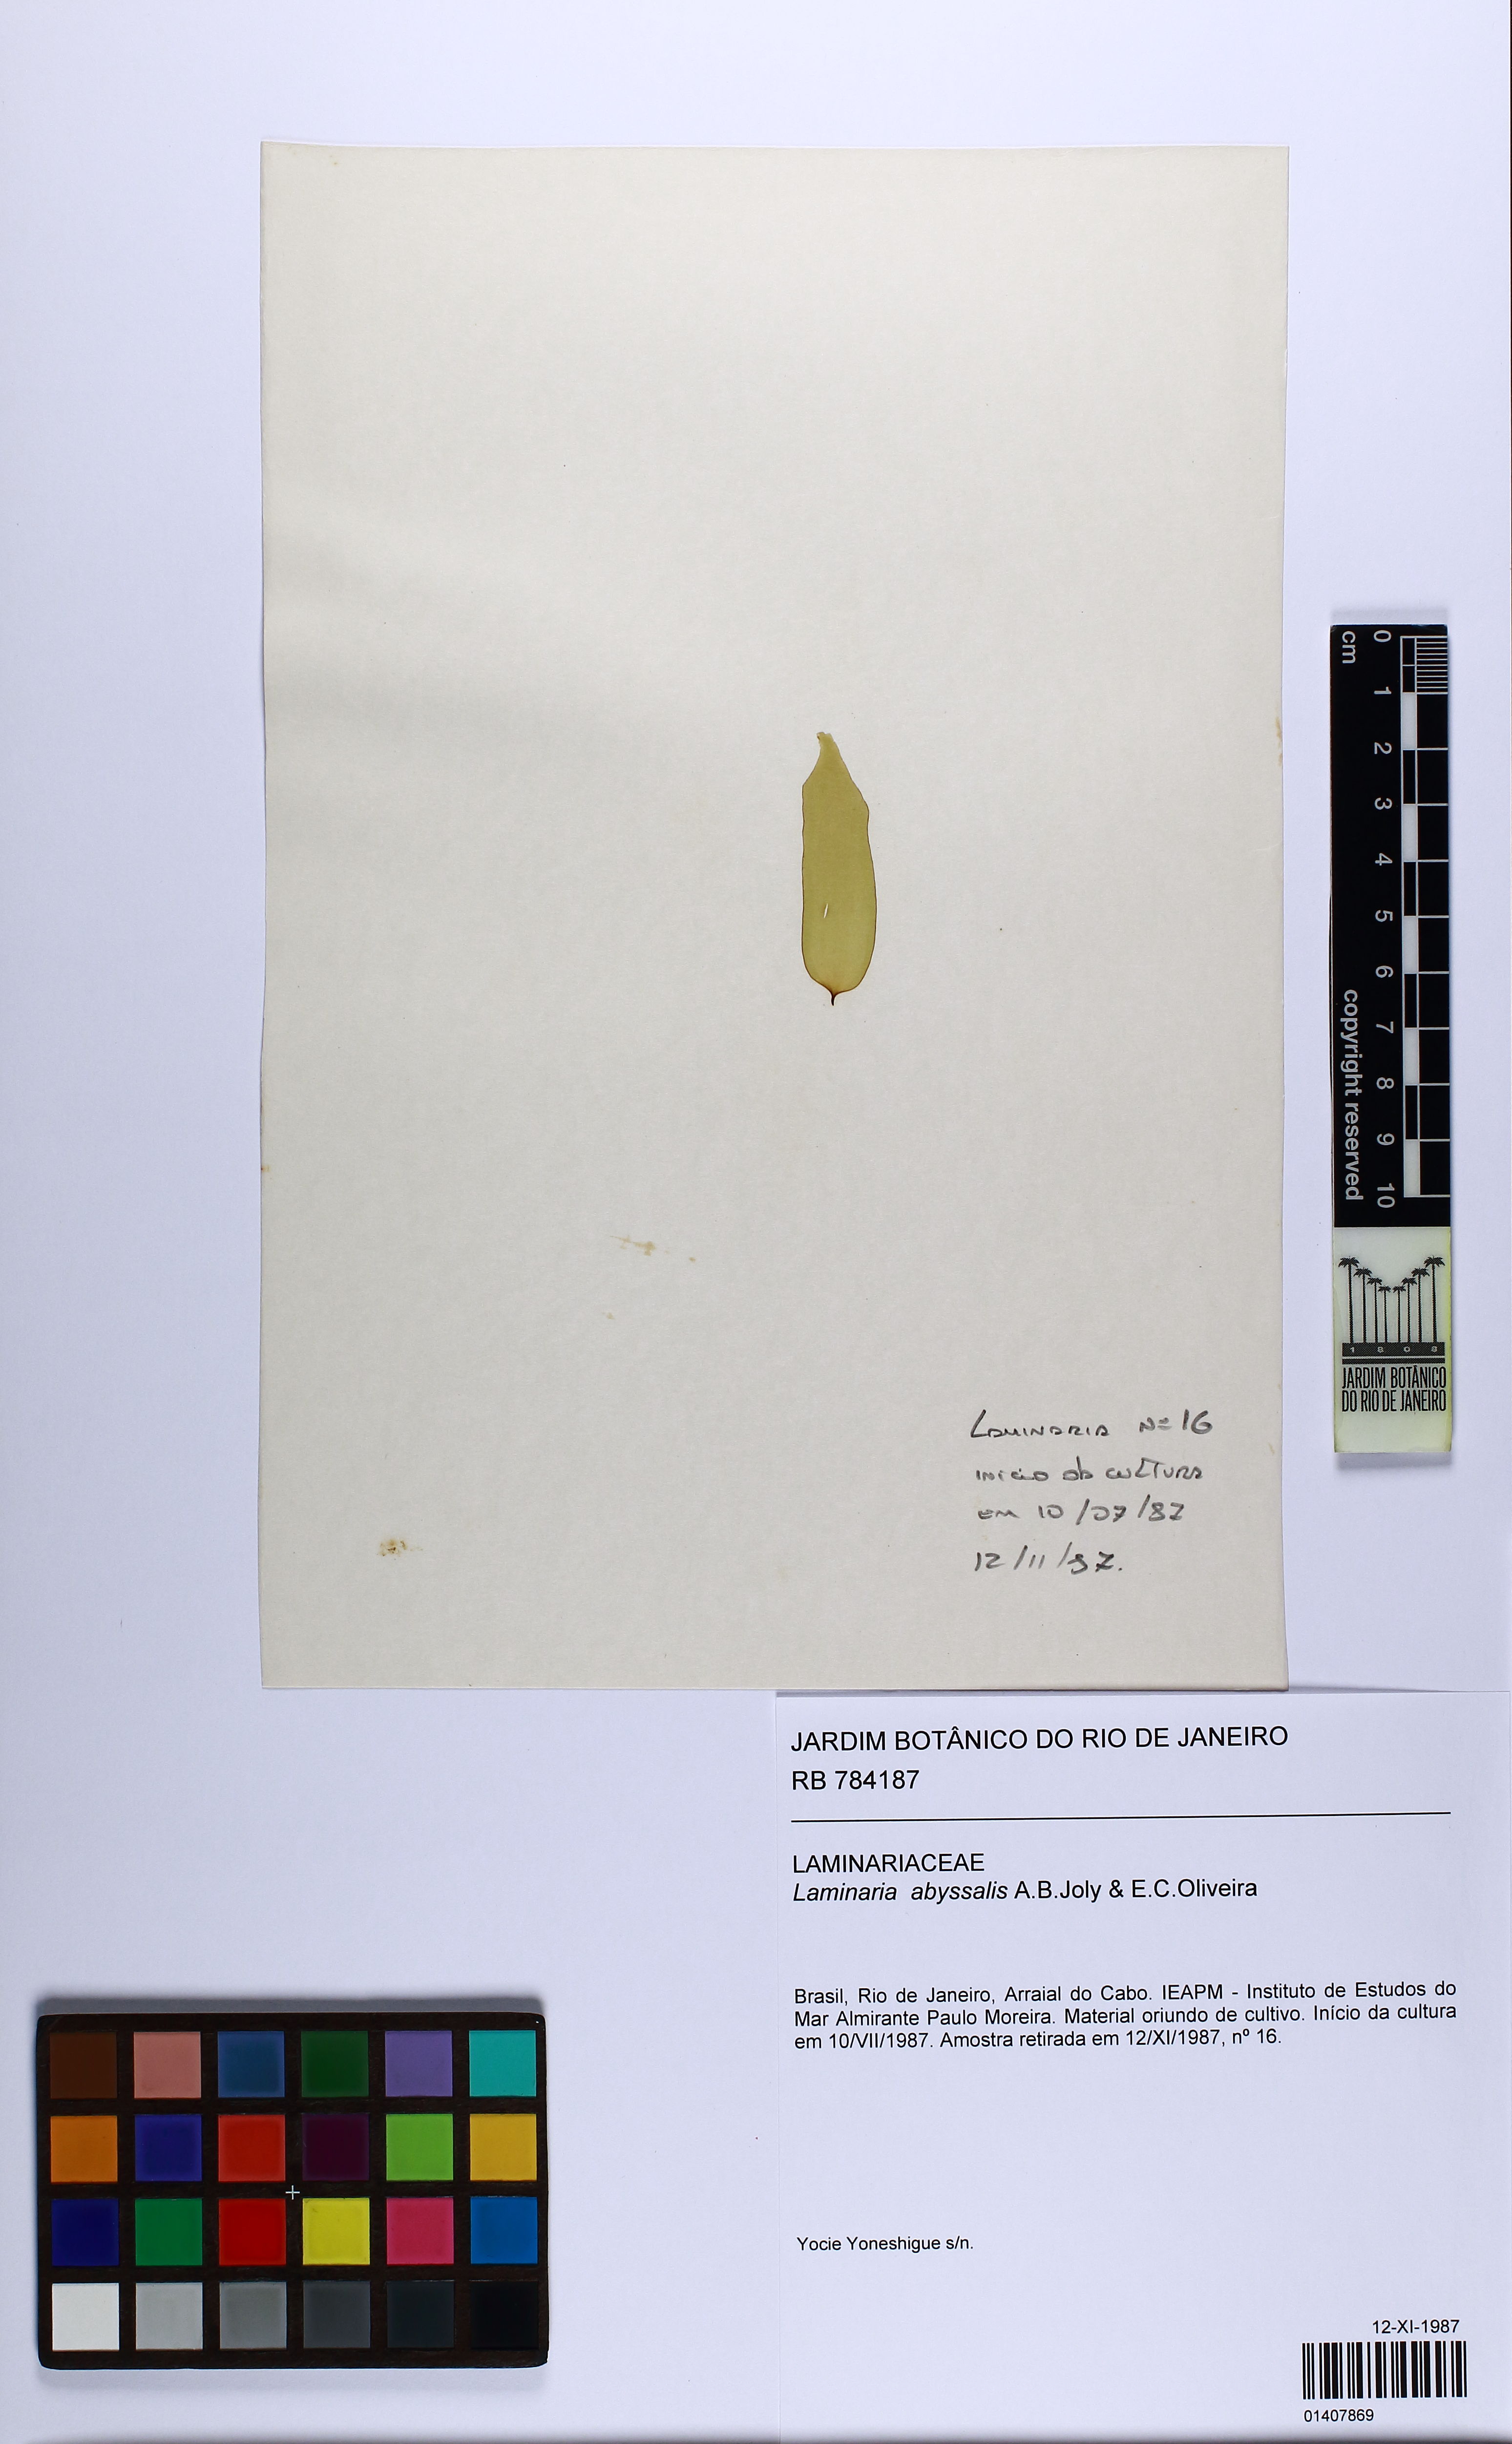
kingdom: Chromista
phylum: Ochrophyta
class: Phaeophyceae
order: Laminariales
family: Laminariaceae
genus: Laminaria
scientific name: Laminaria abyssalis
